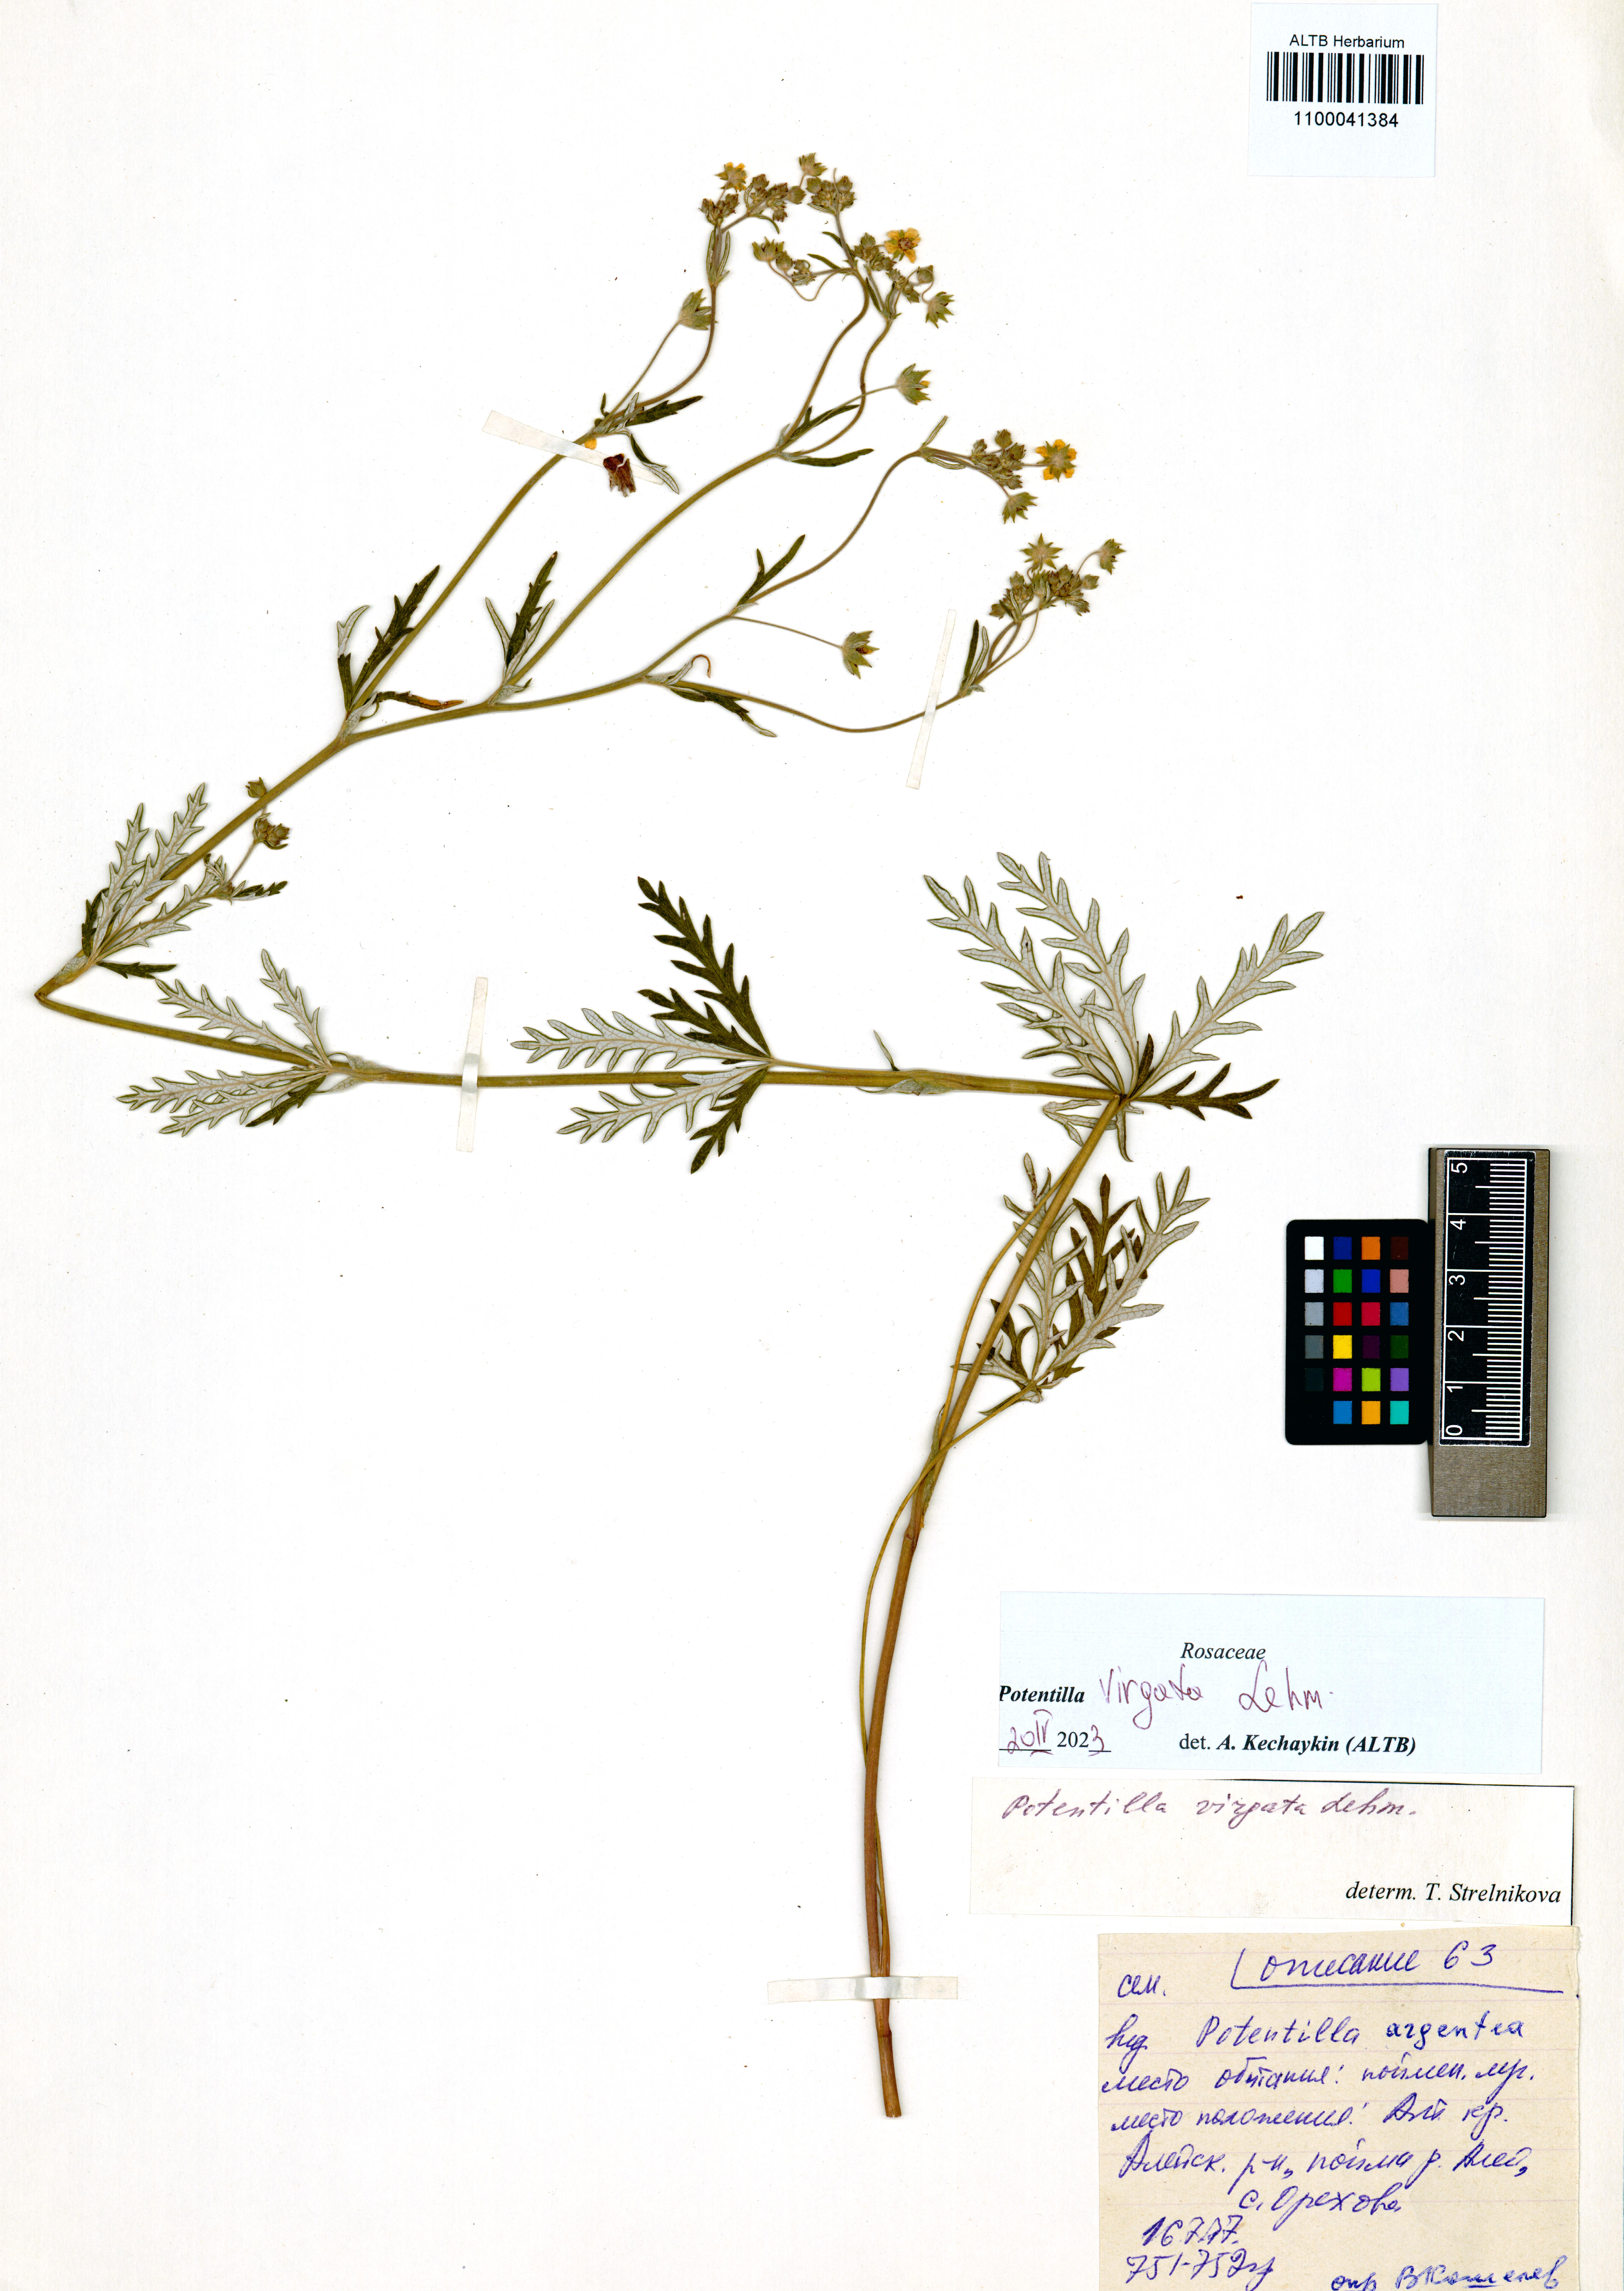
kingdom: Plantae
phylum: Tracheophyta
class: Magnoliopsida
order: Rosales
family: Rosaceae
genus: Potentilla
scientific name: Potentilla virgata
